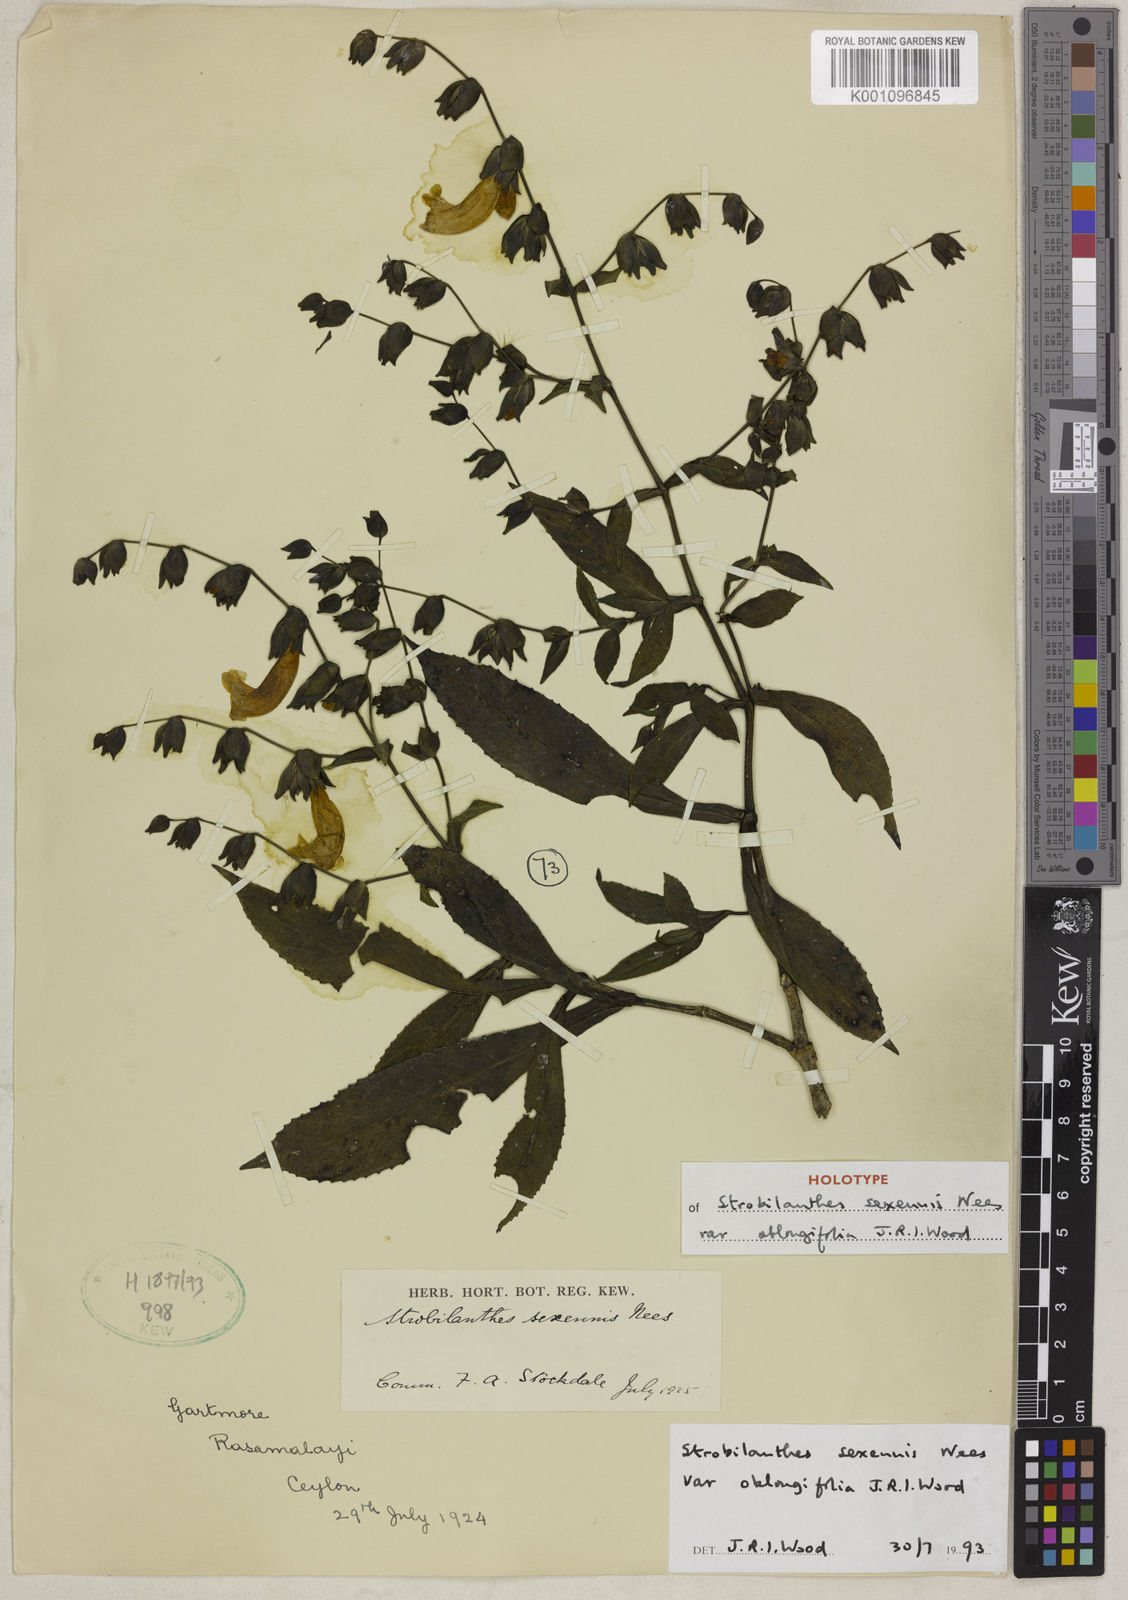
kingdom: Plantae
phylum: Tracheophyta
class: Magnoliopsida
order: Lamiales
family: Acanthaceae
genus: Strobilanthes
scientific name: Strobilanthes sexennis
